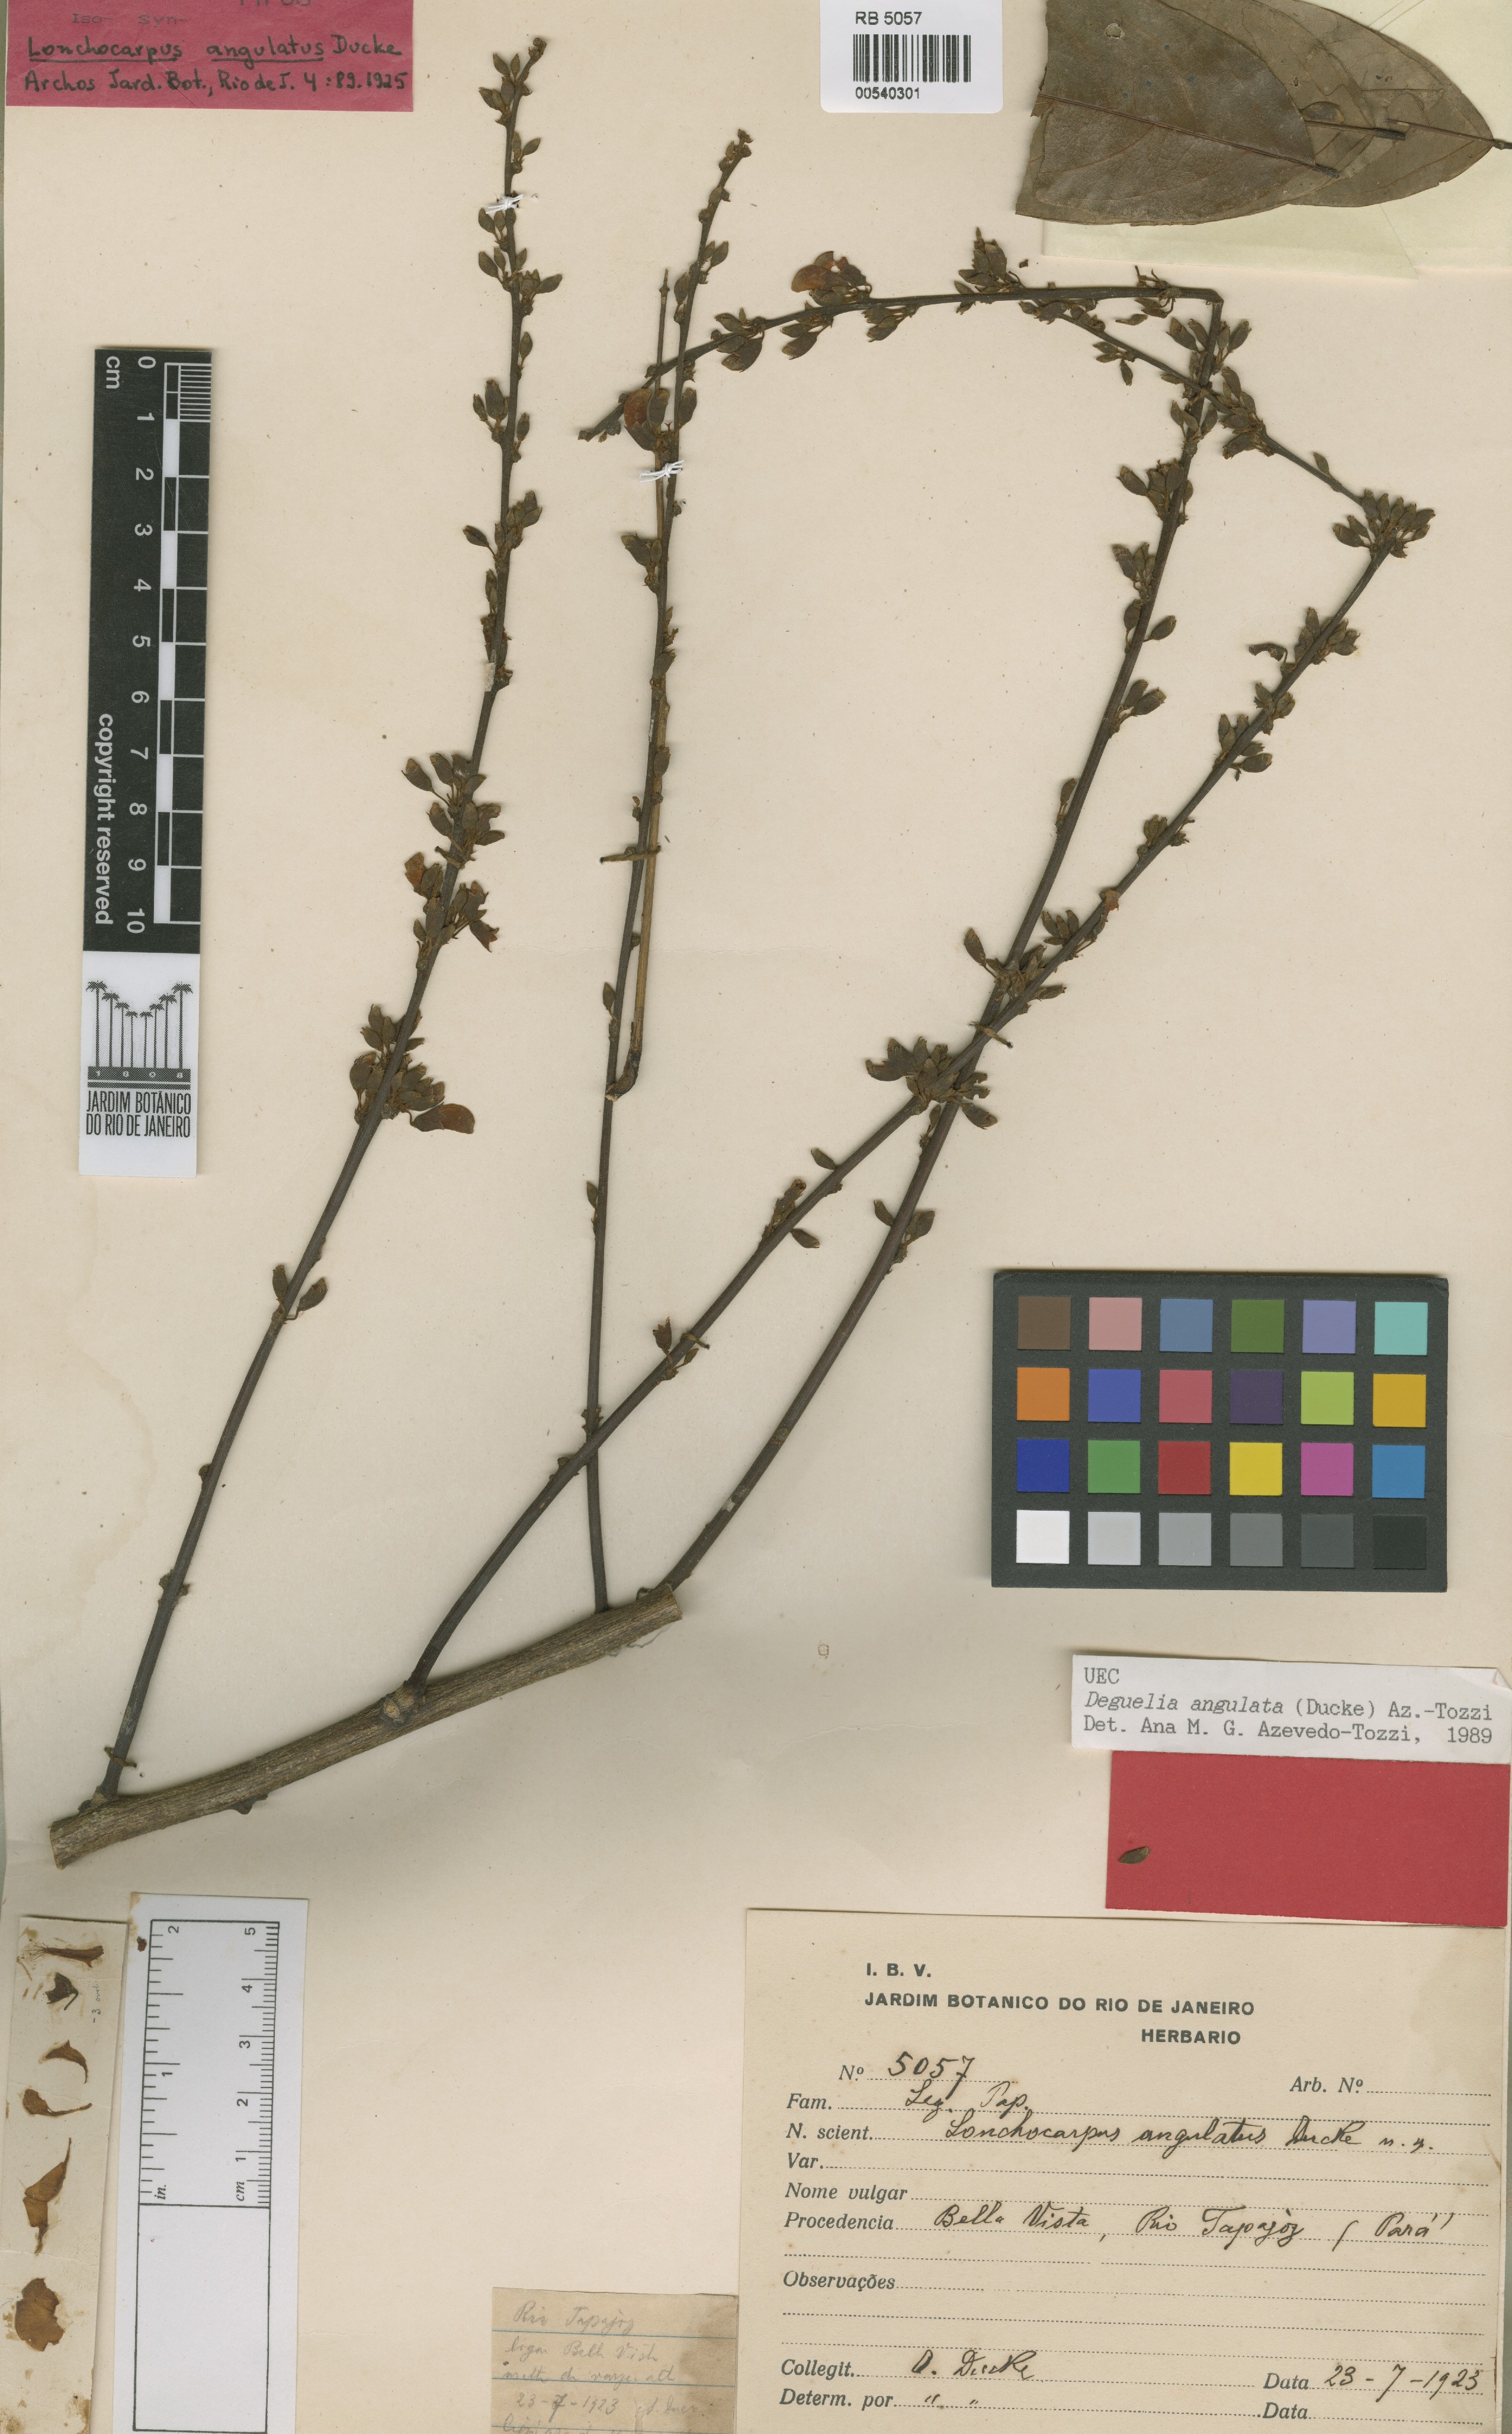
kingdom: Plantae
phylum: Tracheophyta
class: Magnoliopsida
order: Fabales
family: Fabaceae
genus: Deguelia
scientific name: Deguelia angulata
